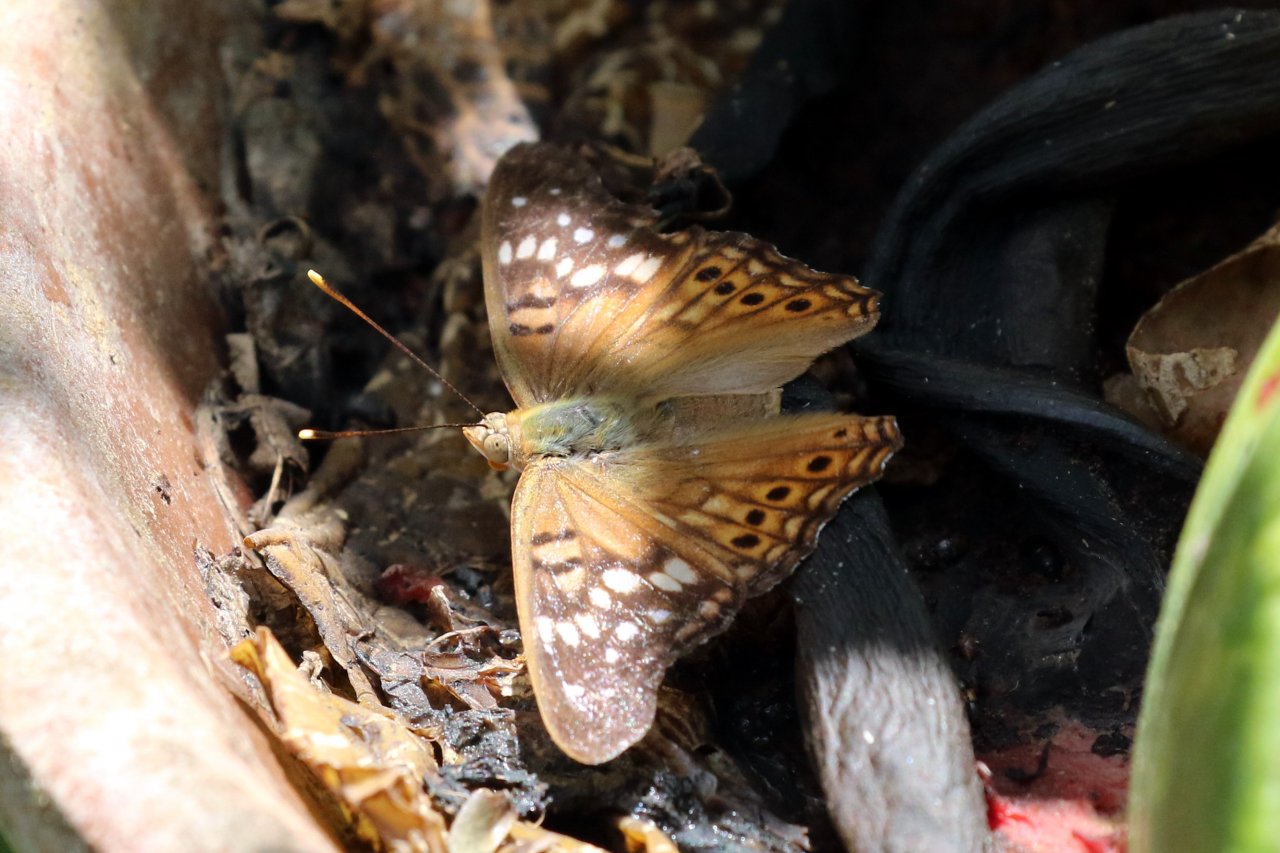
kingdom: Animalia
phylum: Arthropoda
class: Insecta
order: Lepidoptera
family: Nymphalidae
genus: Asterocampa
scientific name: Asterocampa clyton
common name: Tawny Emperor
